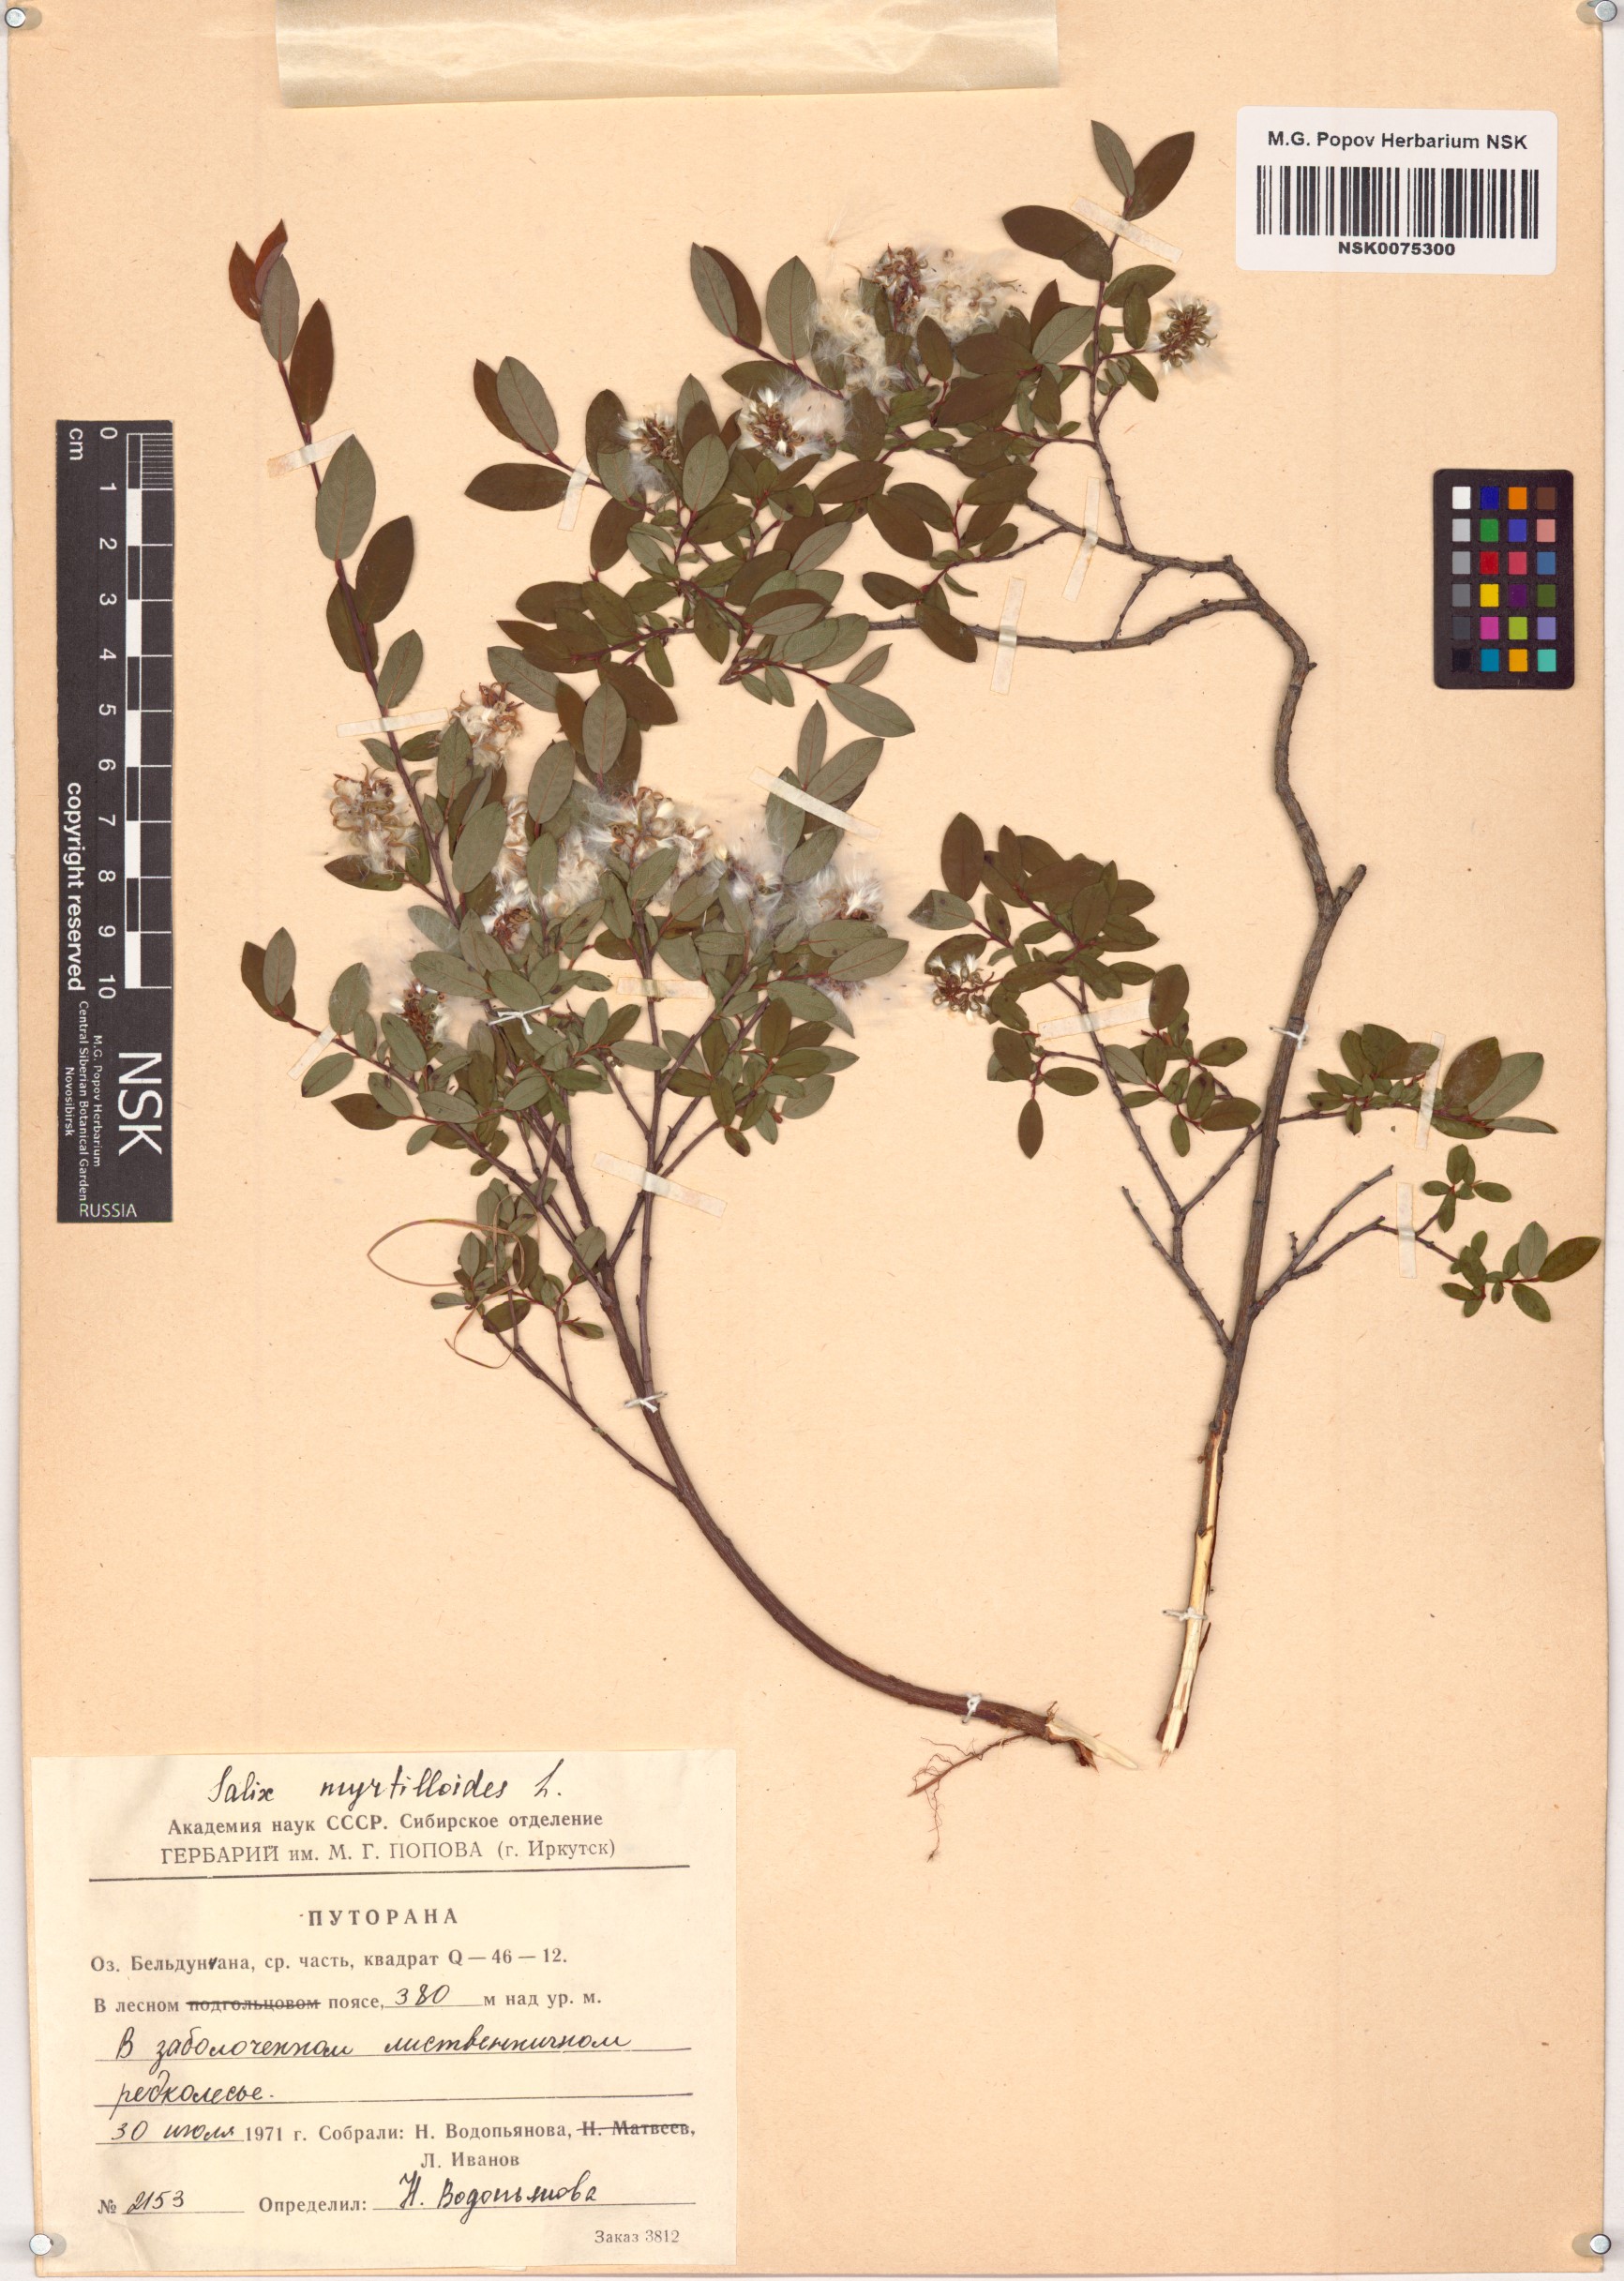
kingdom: Plantae
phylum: Tracheophyta
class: Magnoliopsida
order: Malpighiales
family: Salicaceae
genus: Salix
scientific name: Salix myrtilloides
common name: Myrtle-leaved willow
